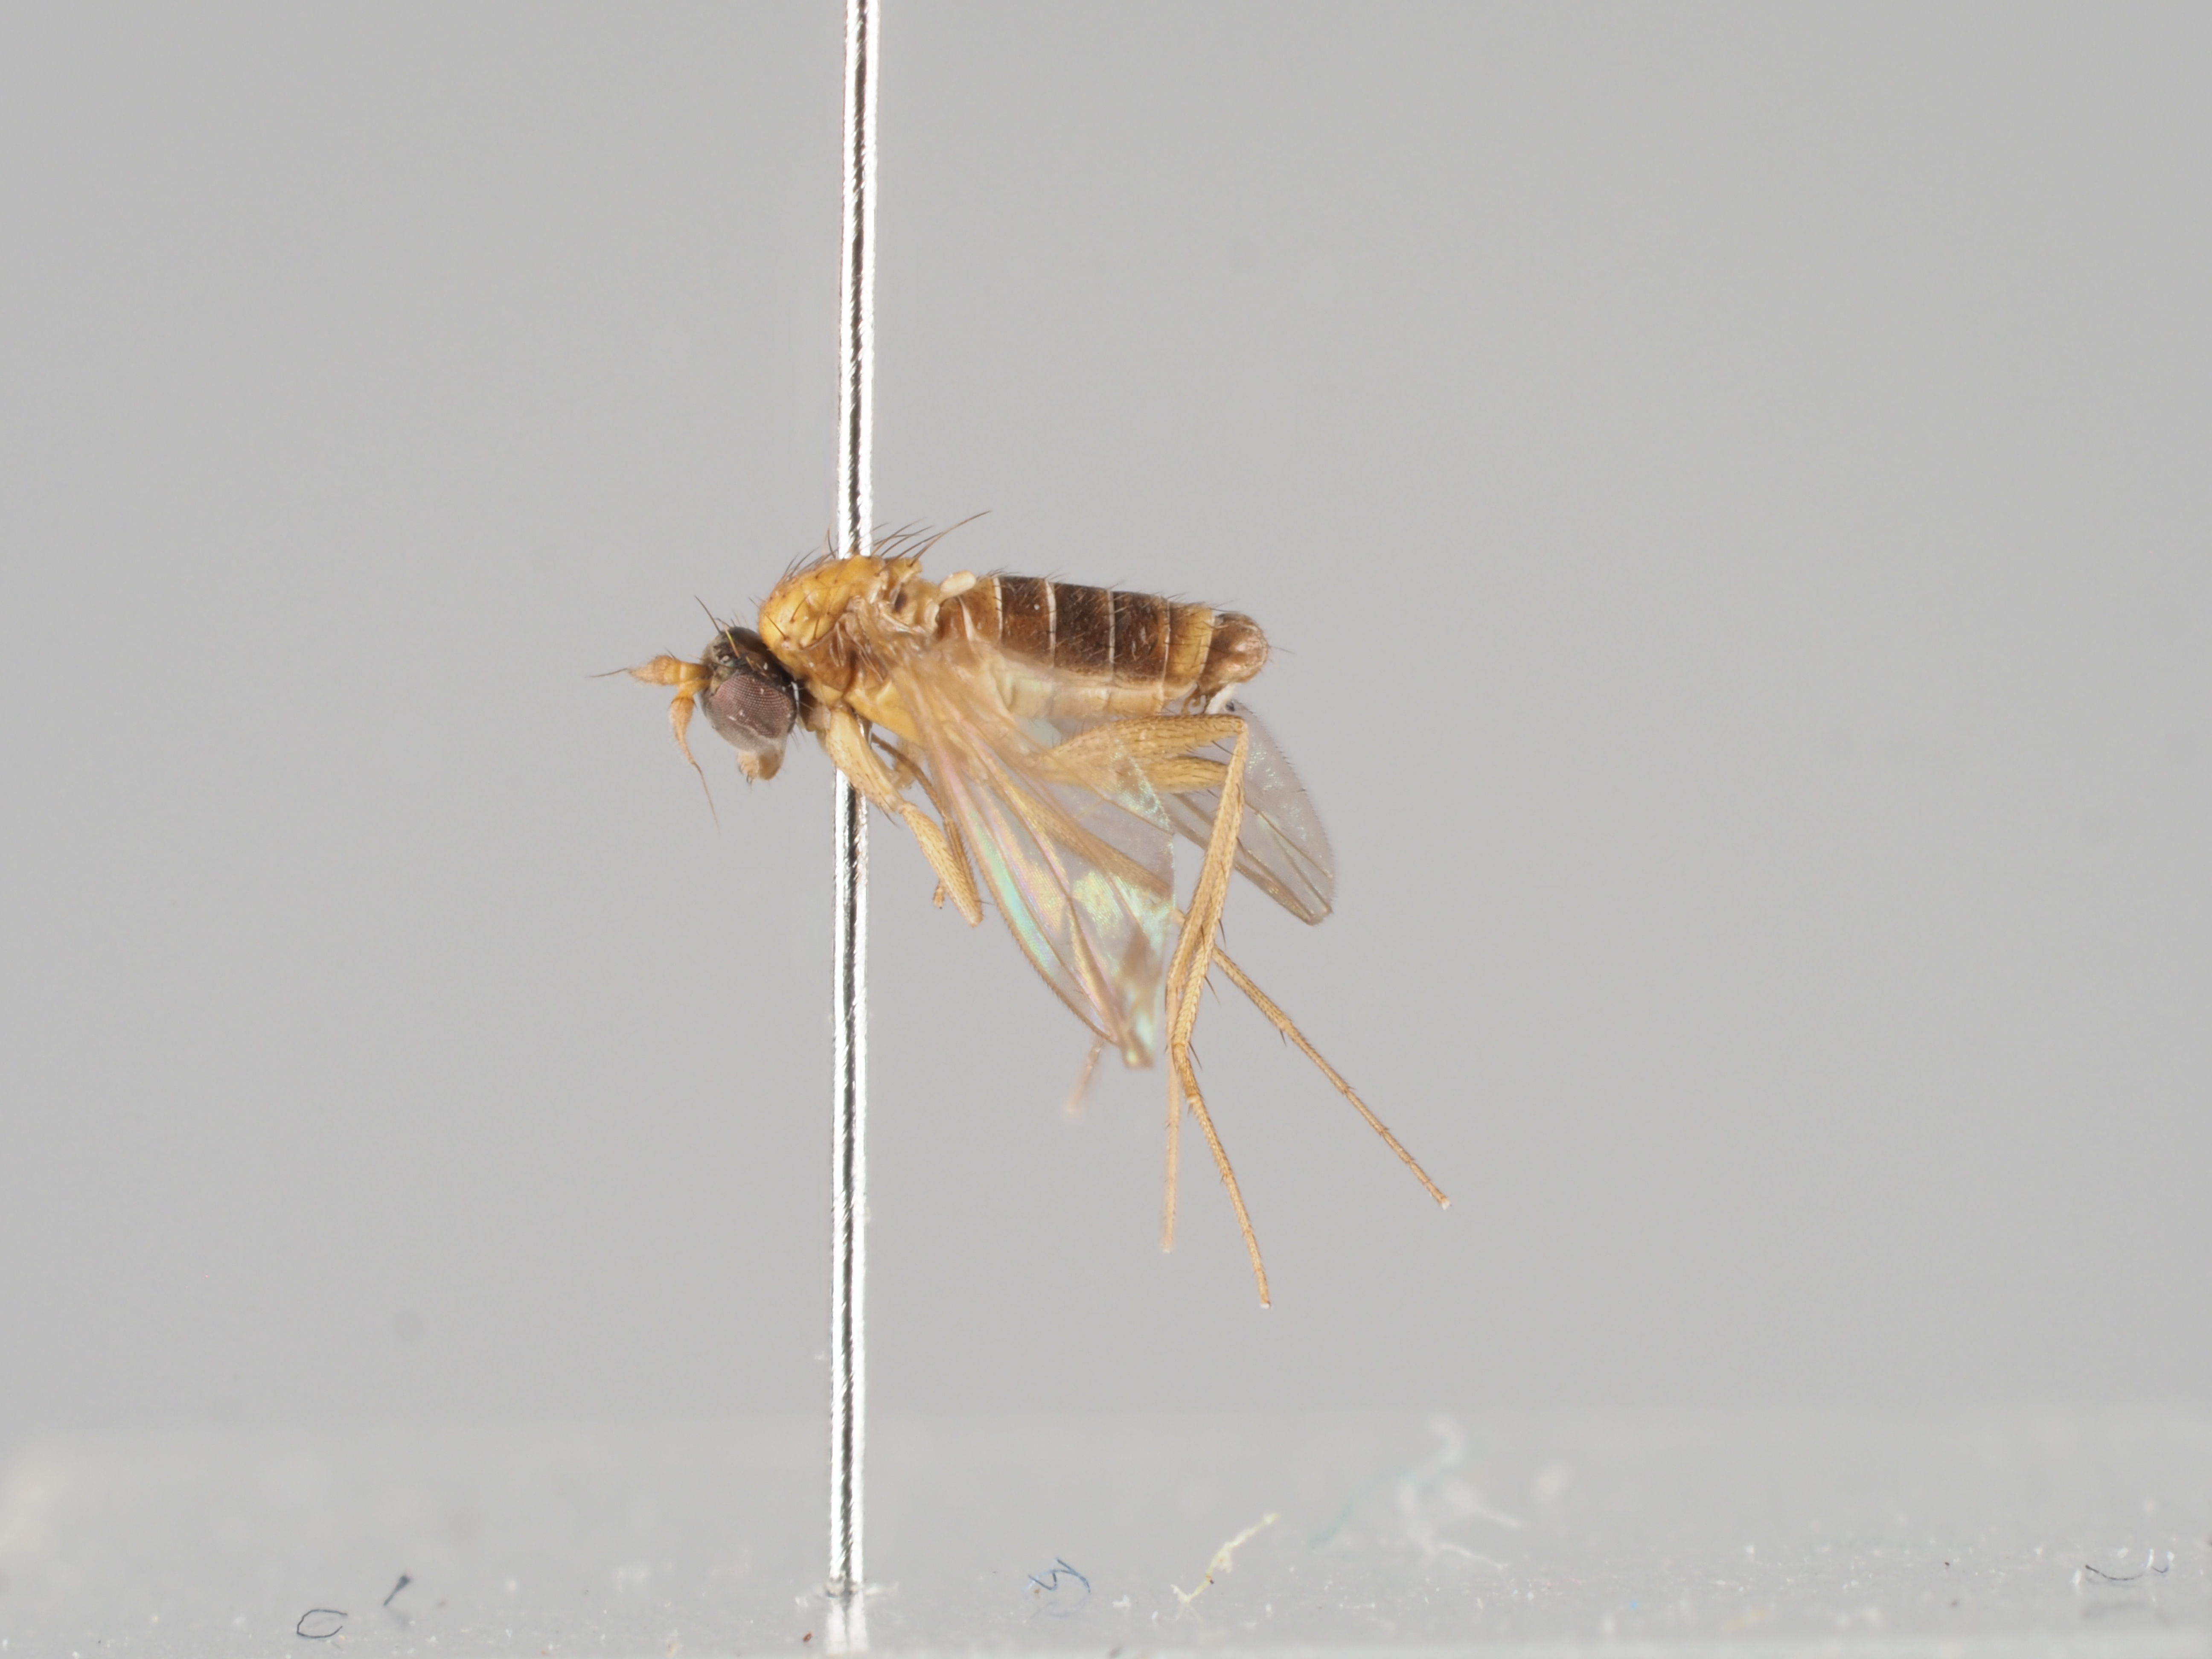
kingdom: Animalia
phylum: Arthropoda
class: Insecta
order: Diptera
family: Dolichopodidae
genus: Achalcus
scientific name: Achalcus vaillanti
